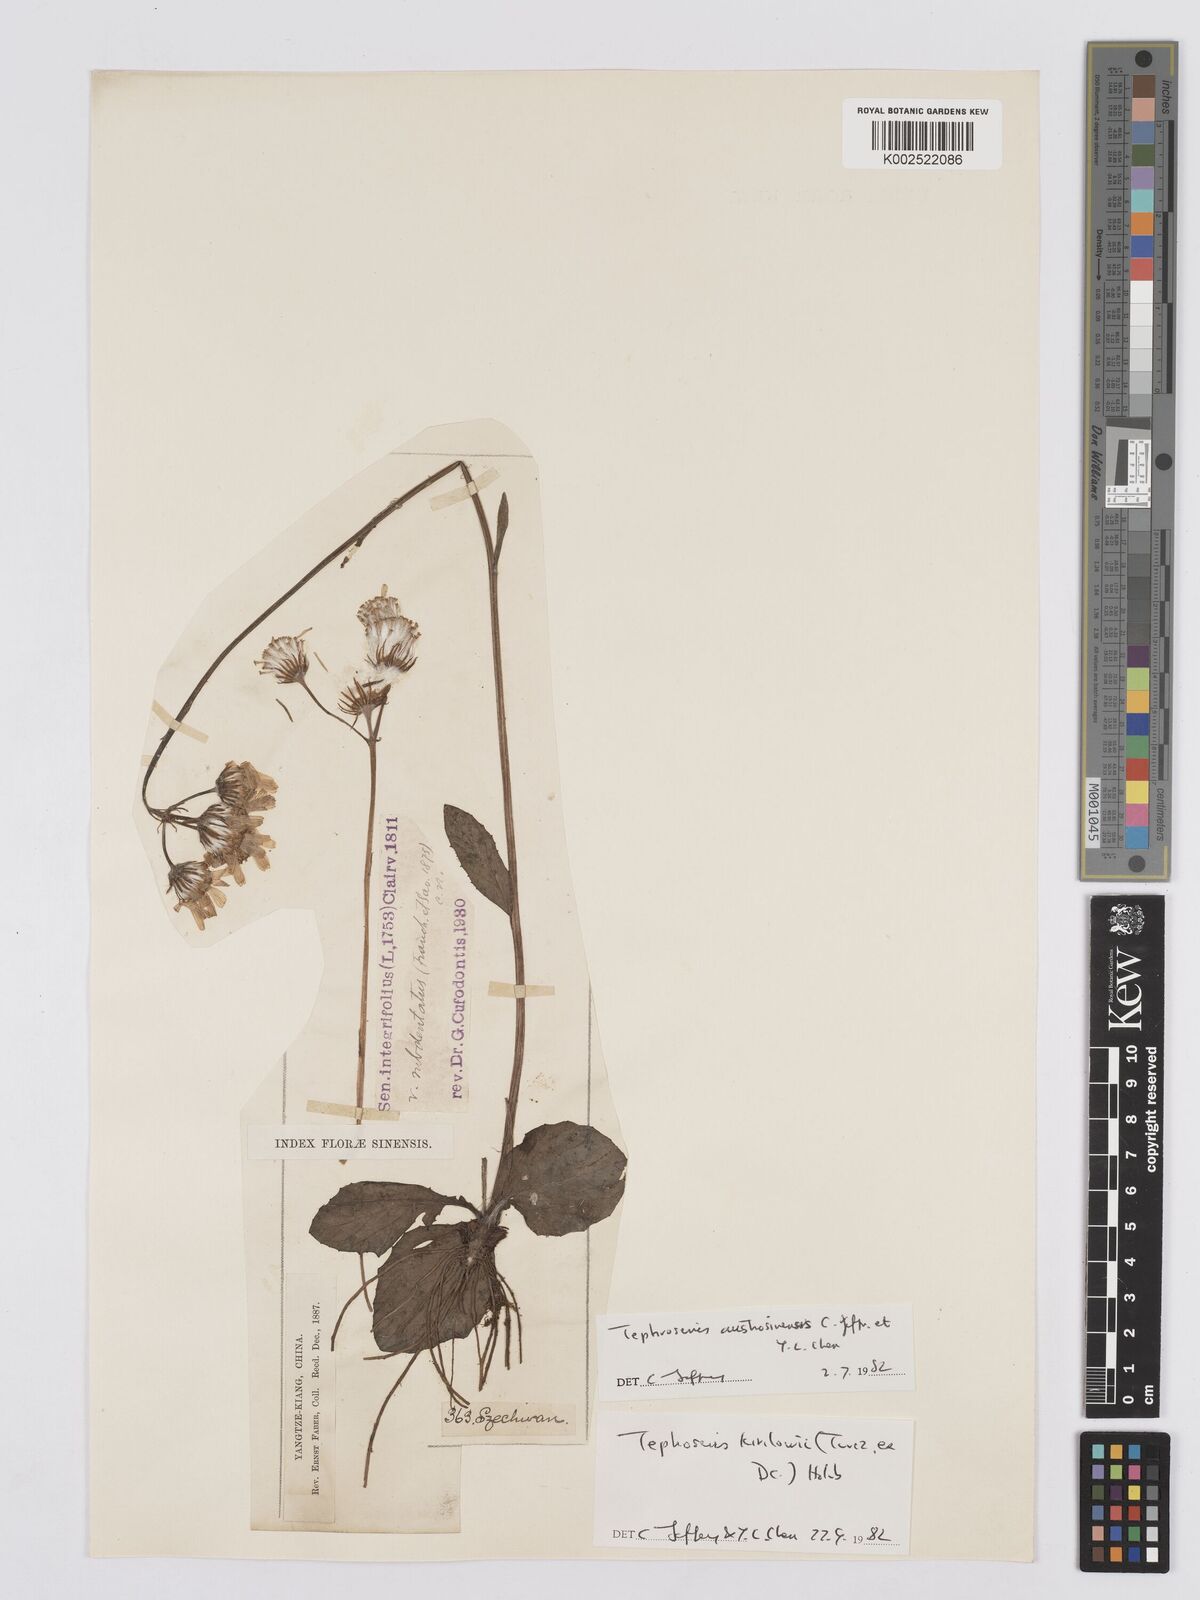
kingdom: Plantae
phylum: Tracheophyta
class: Magnoliopsida
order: Asterales
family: Asteraceae
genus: Tephroseris
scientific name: Tephroseris kirilowii
